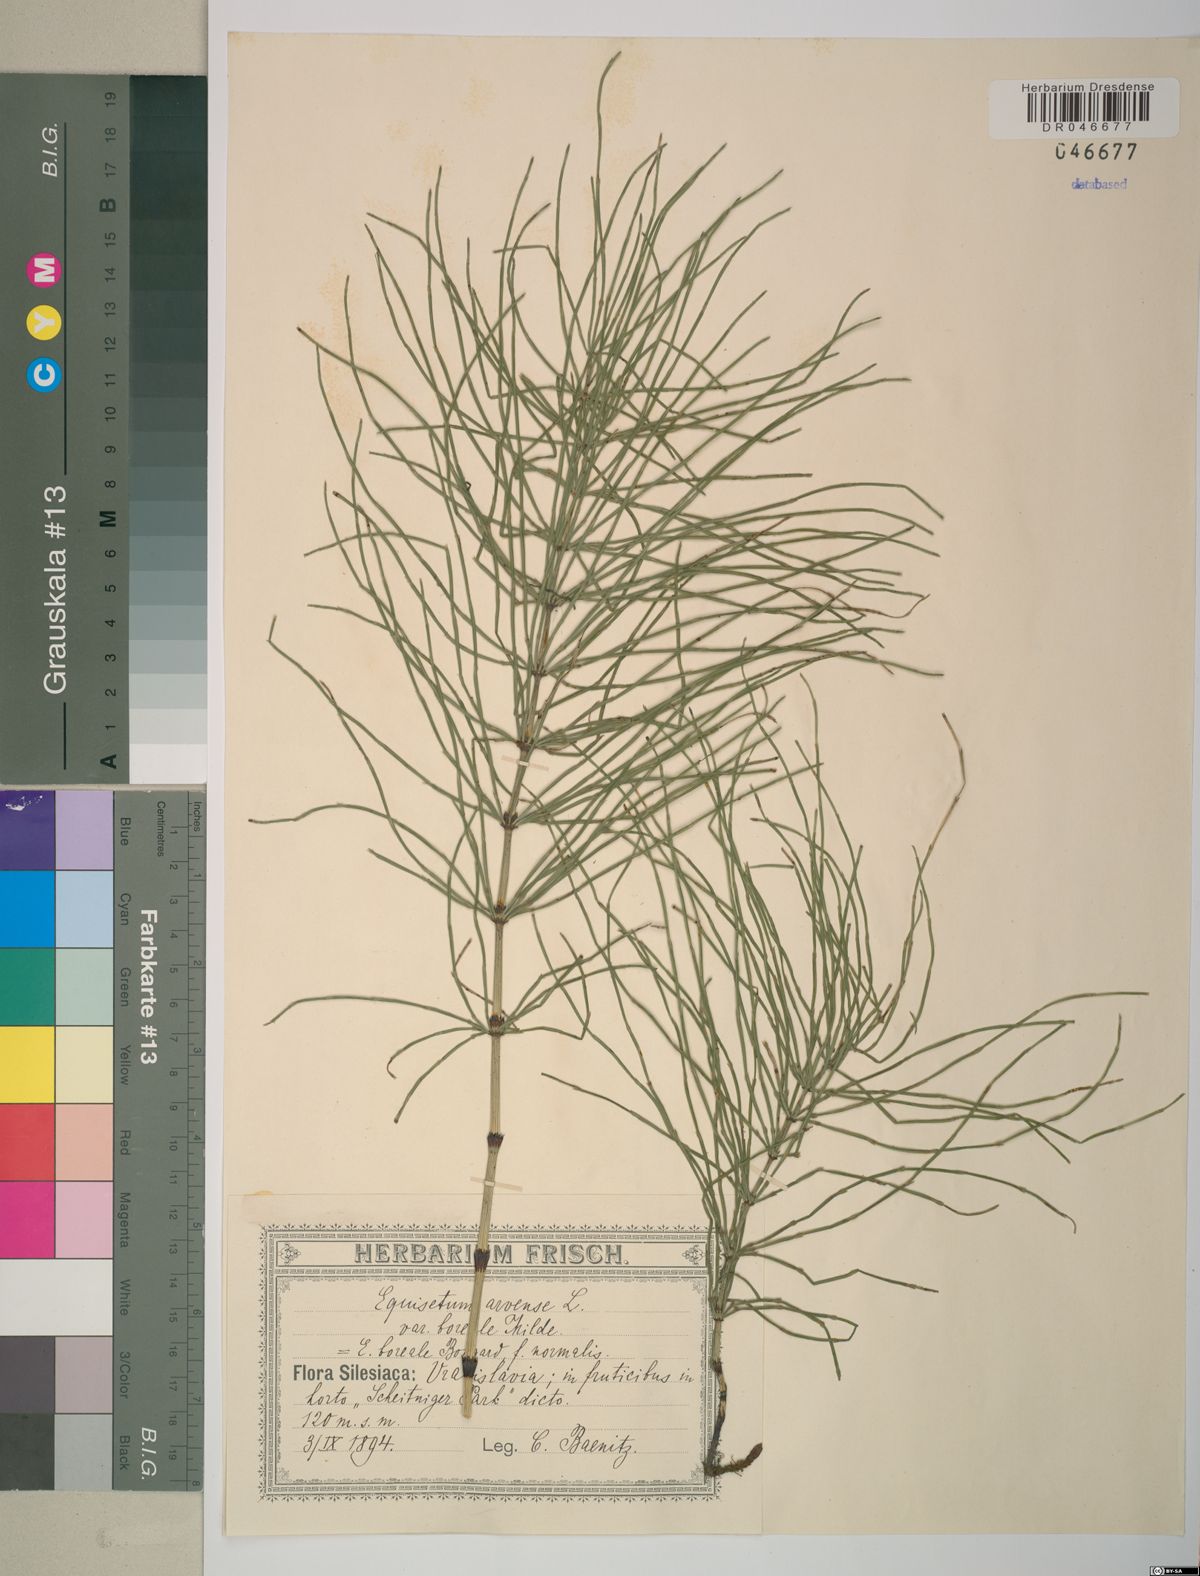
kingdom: Plantae
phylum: Tracheophyta
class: Polypodiopsida
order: Equisetales
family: Equisetaceae
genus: Equisetum
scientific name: Equisetum arvense
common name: Field horsetail
